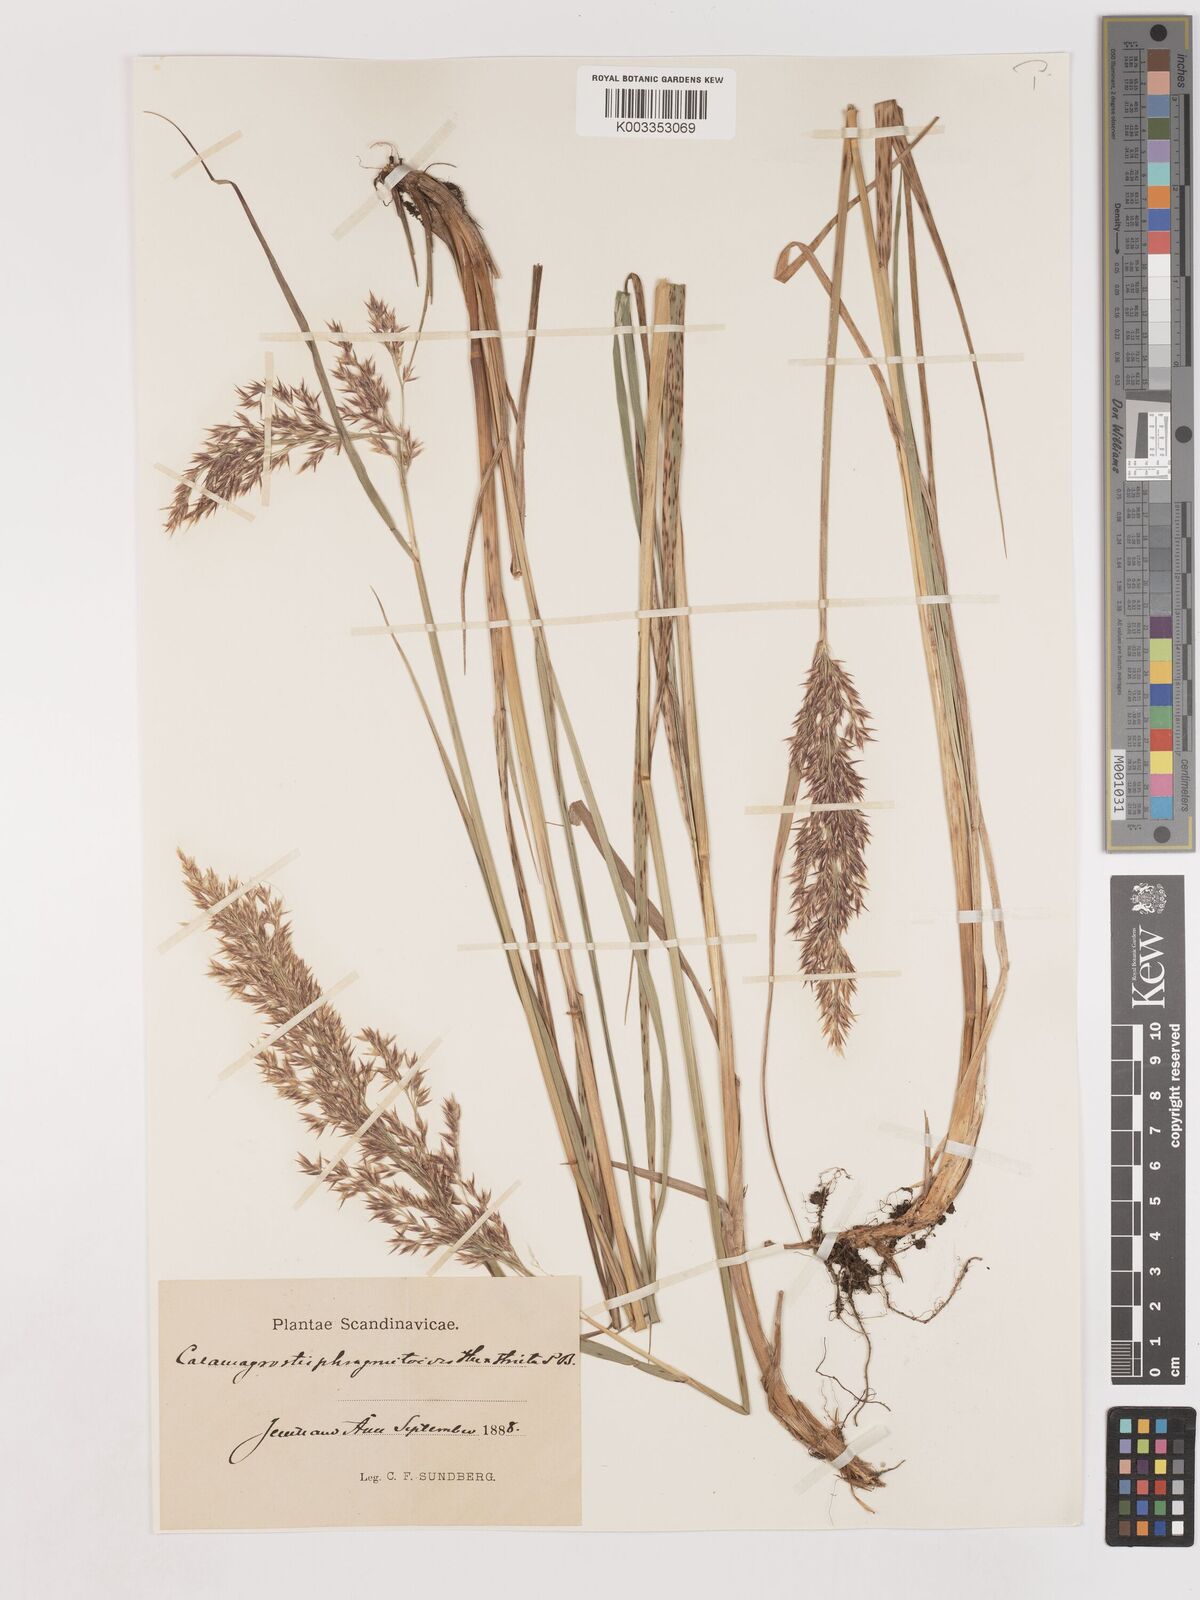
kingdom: Plantae
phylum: Tracheophyta
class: Liliopsida
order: Poales
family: Poaceae
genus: Calamagrostis
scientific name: Calamagrostis epigejos
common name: Wood small-reed
